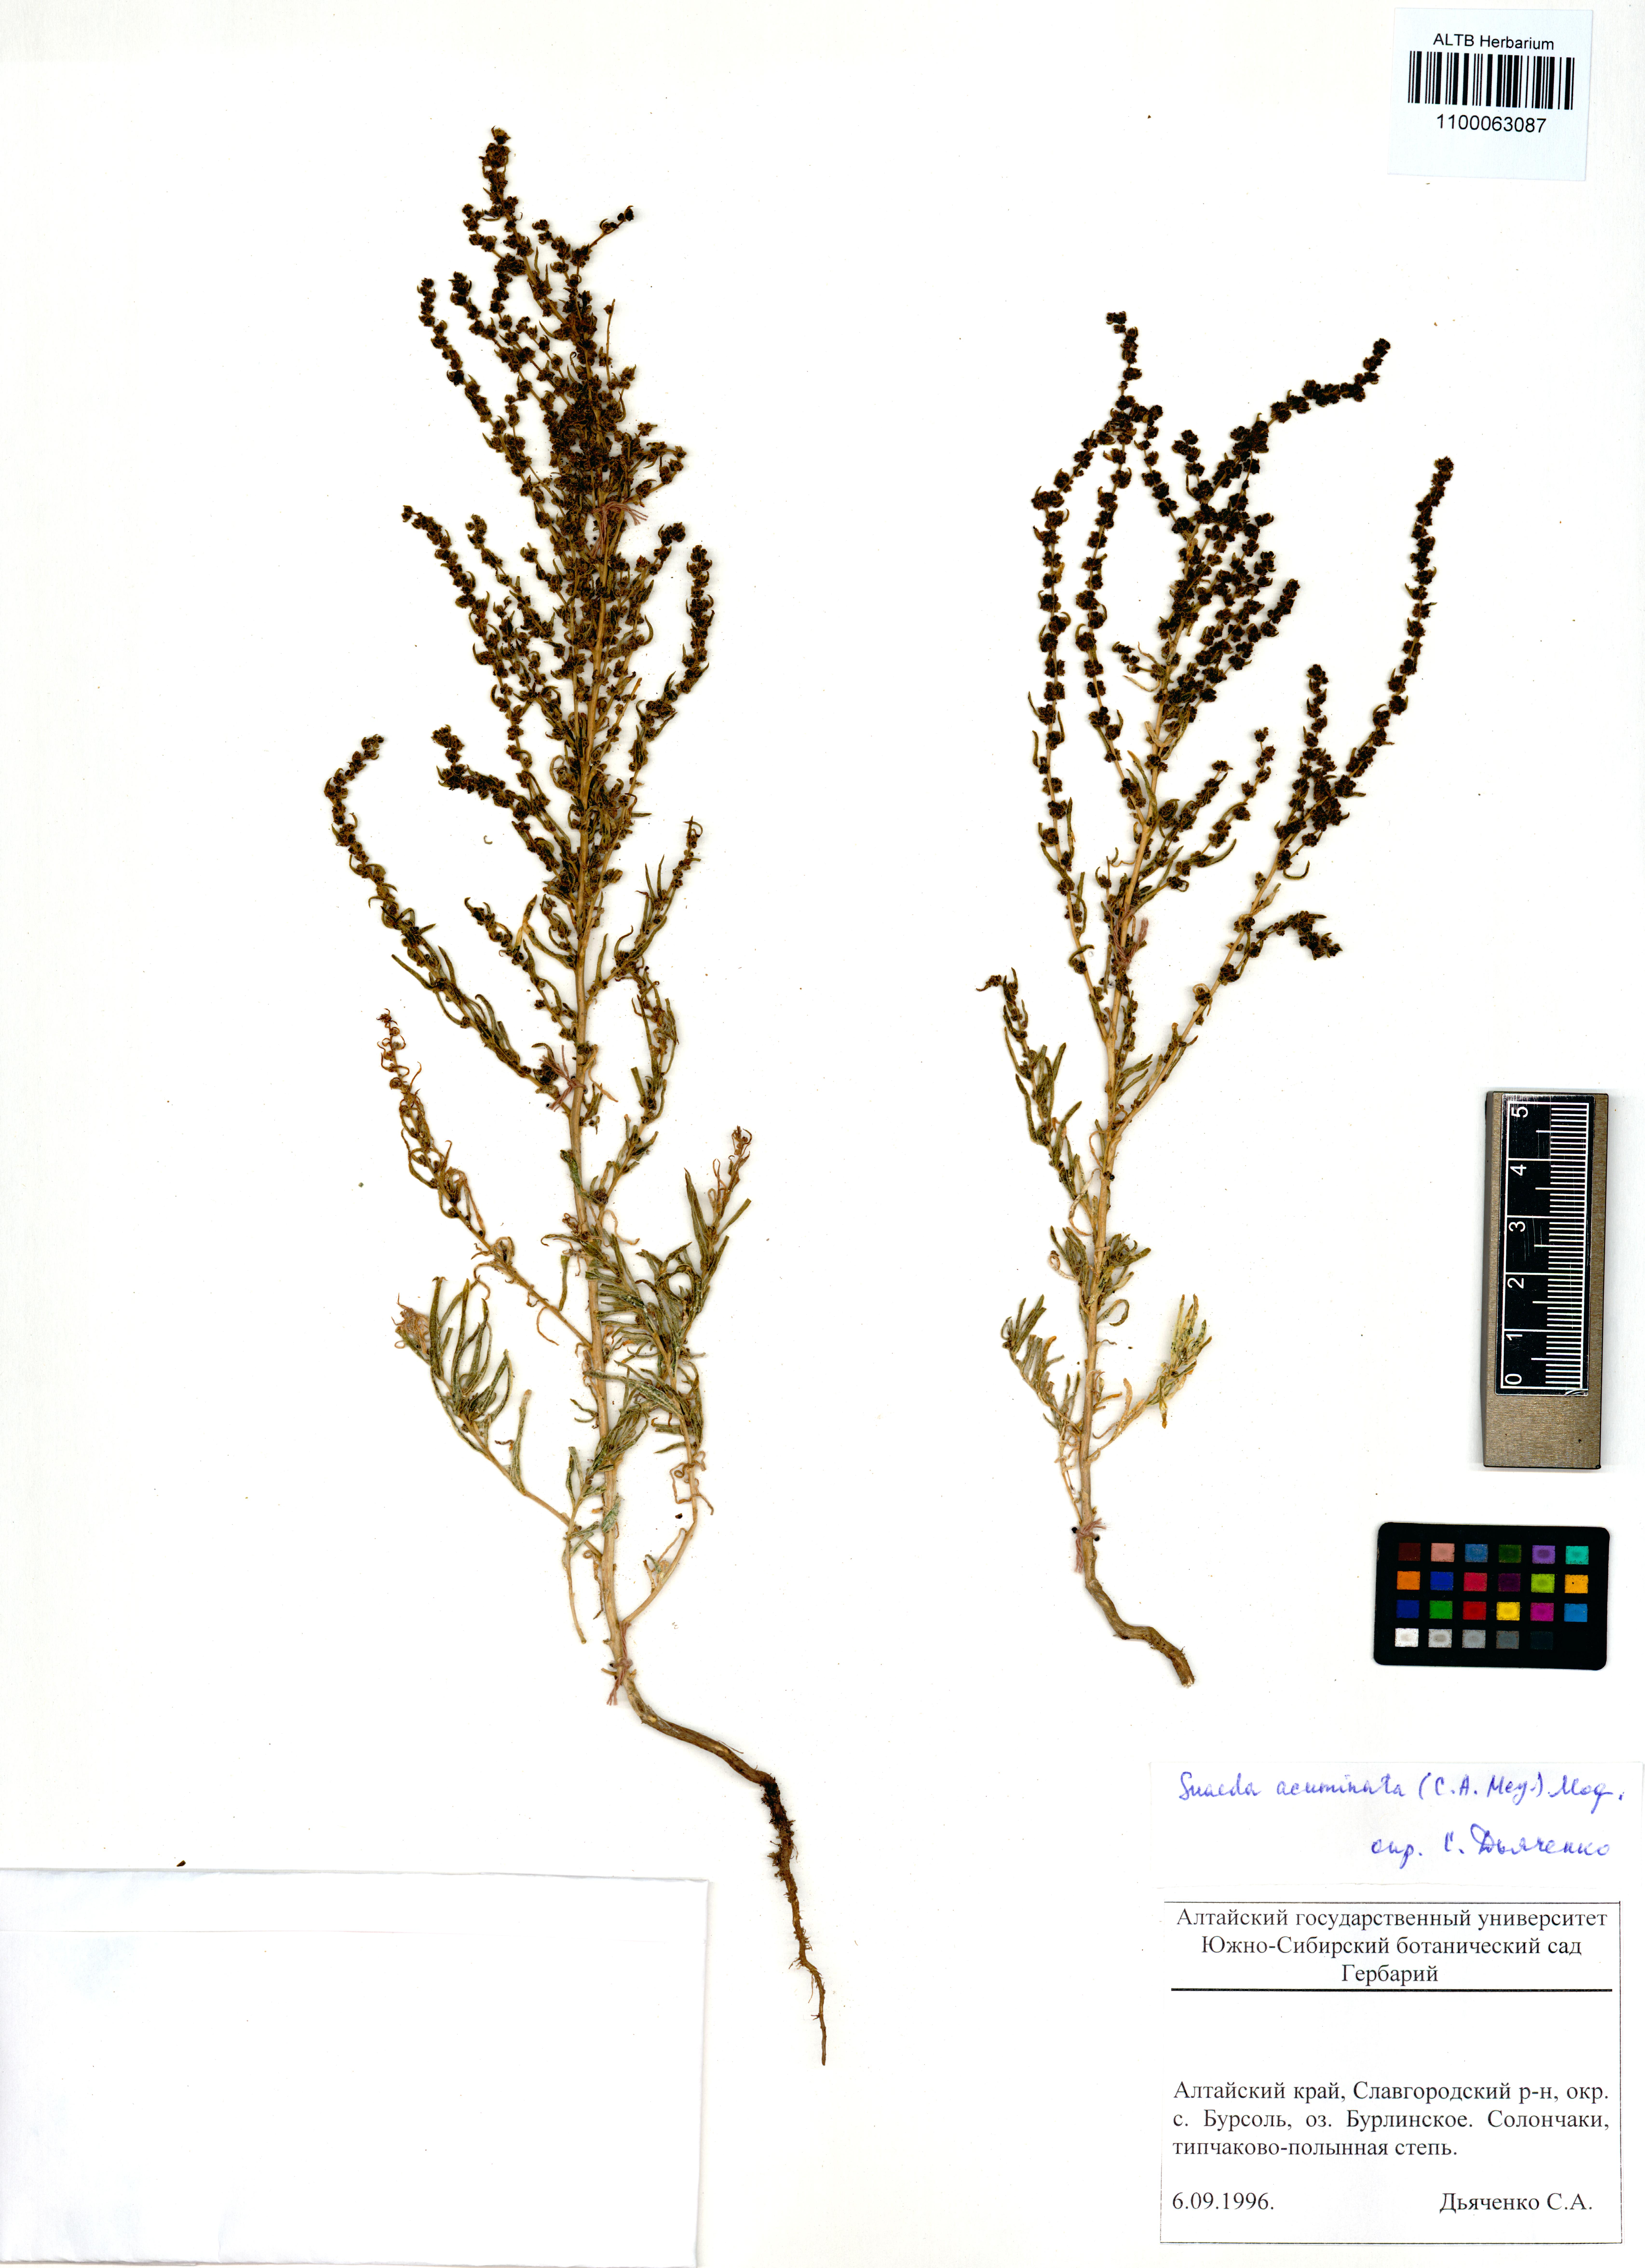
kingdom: Plantae
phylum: Tracheophyta
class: Magnoliopsida
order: Caryophyllales
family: Amaranthaceae
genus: Suaeda
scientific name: Suaeda acuminata
